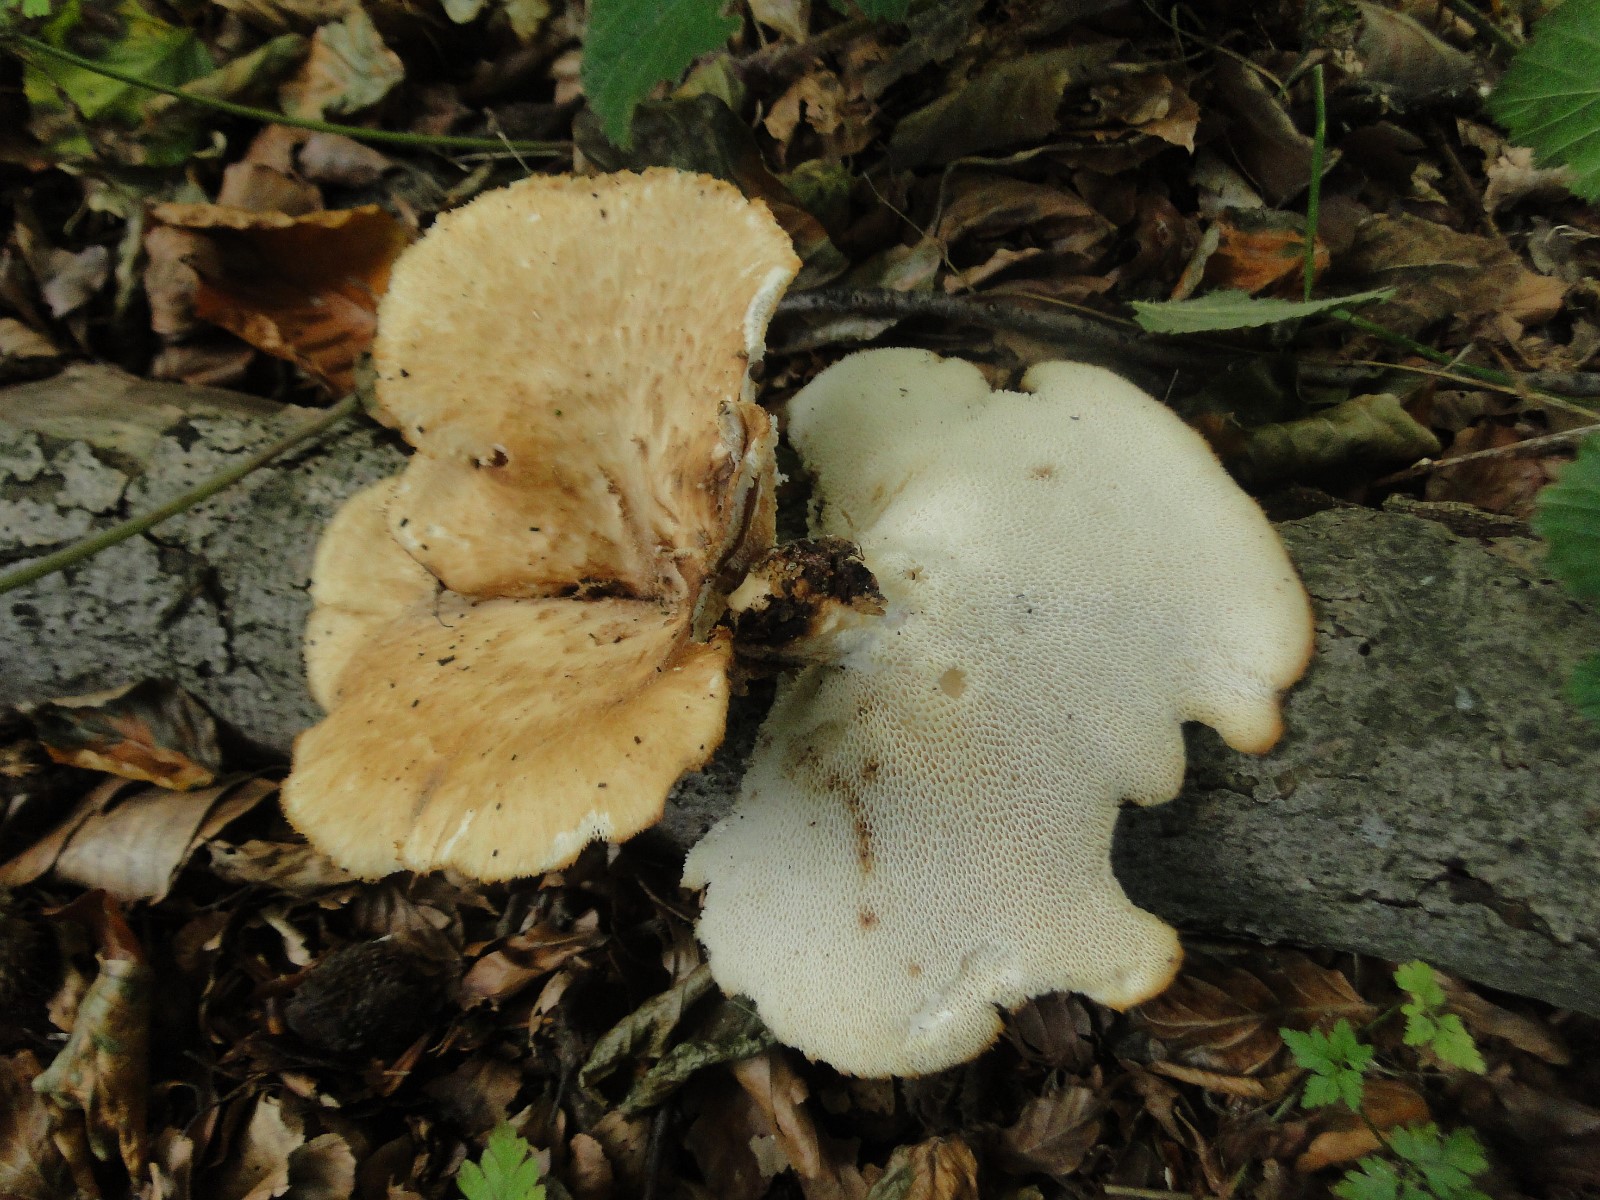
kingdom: Fungi
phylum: Basidiomycota
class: Agaricomycetes
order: Polyporales
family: Polyporaceae
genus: Polyporus
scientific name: Polyporus tuberaster
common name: knoldet stilkporesvamp
